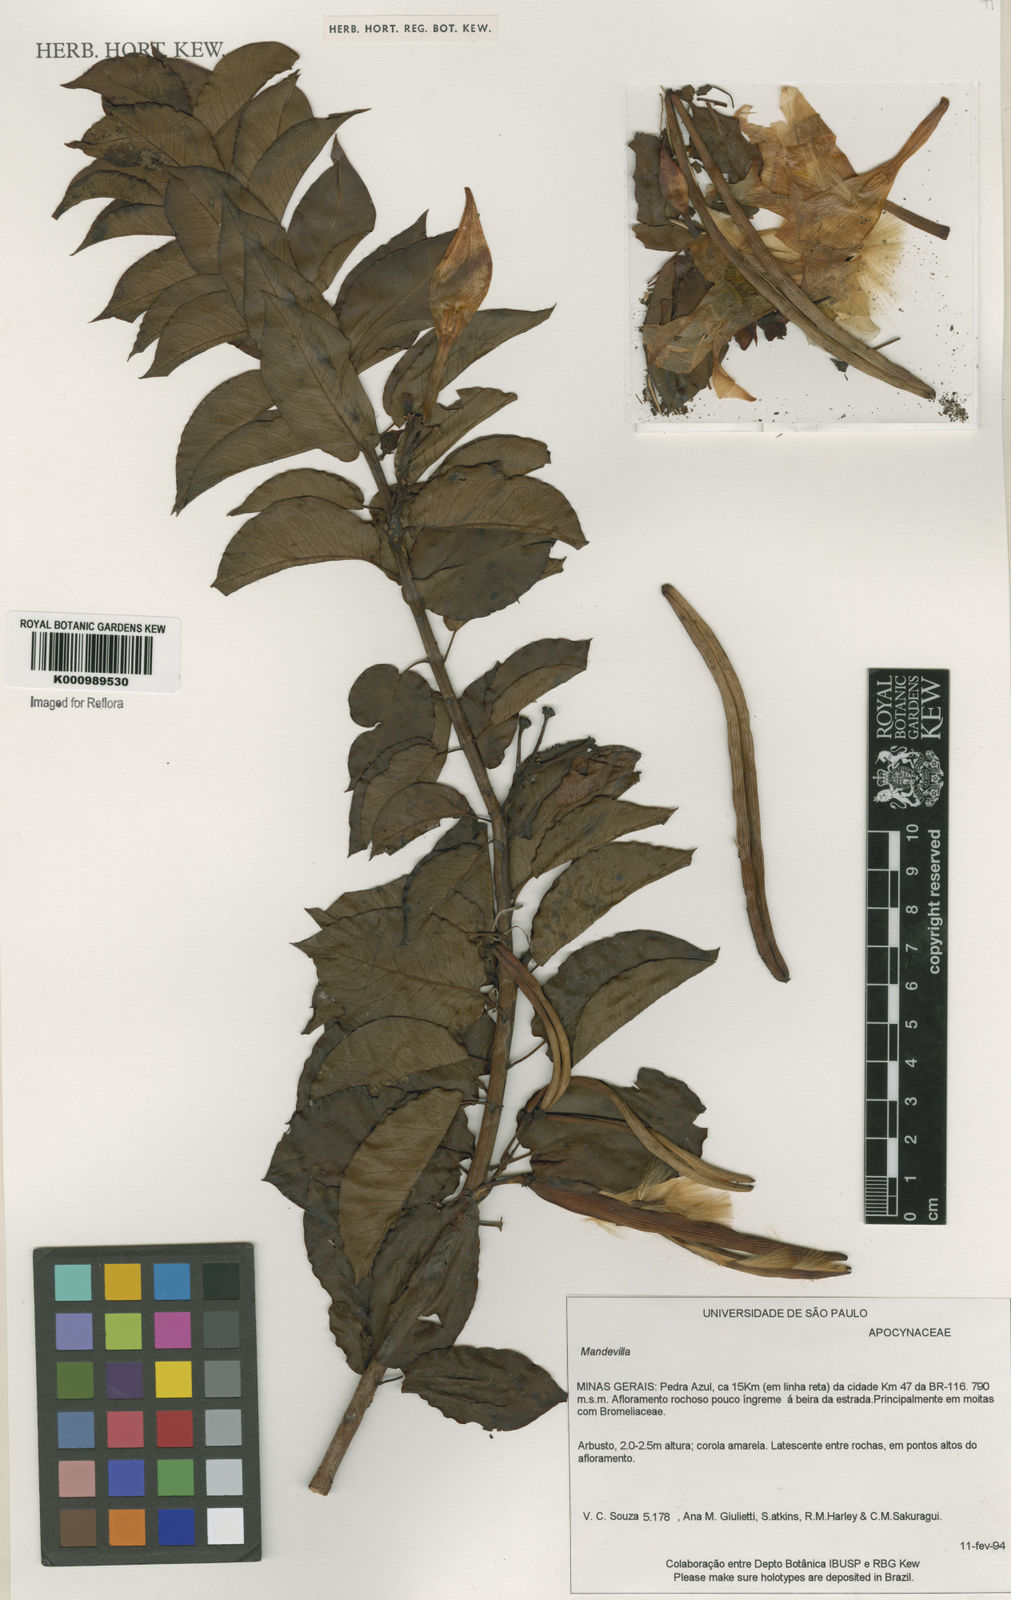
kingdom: Plantae
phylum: Tracheophyta
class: Magnoliopsida
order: Gentianales
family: Apocynaceae
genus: Mandevilla
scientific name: Mandevilla
